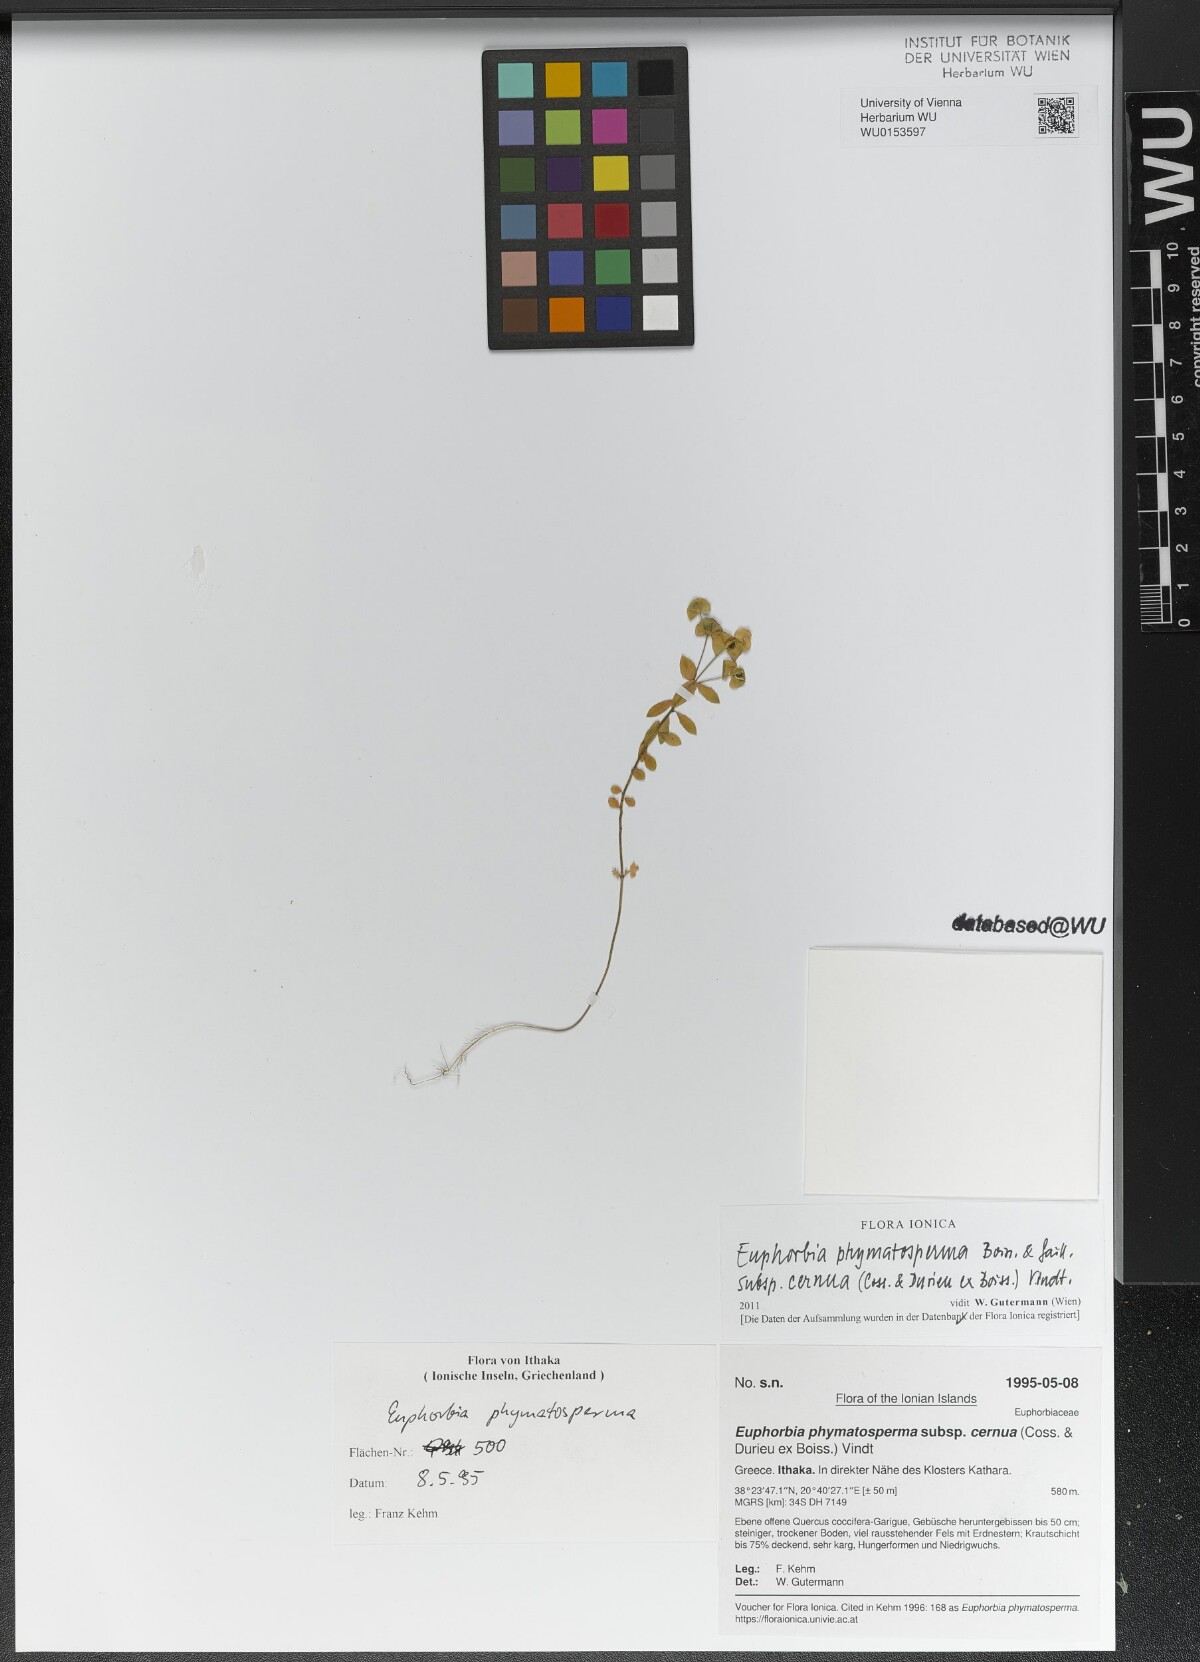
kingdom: Plantae
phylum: Tracheophyta
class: Magnoliopsida
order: Malpighiales
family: Euphorbiaceae
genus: Euphorbia
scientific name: Euphorbia phymatosperma
